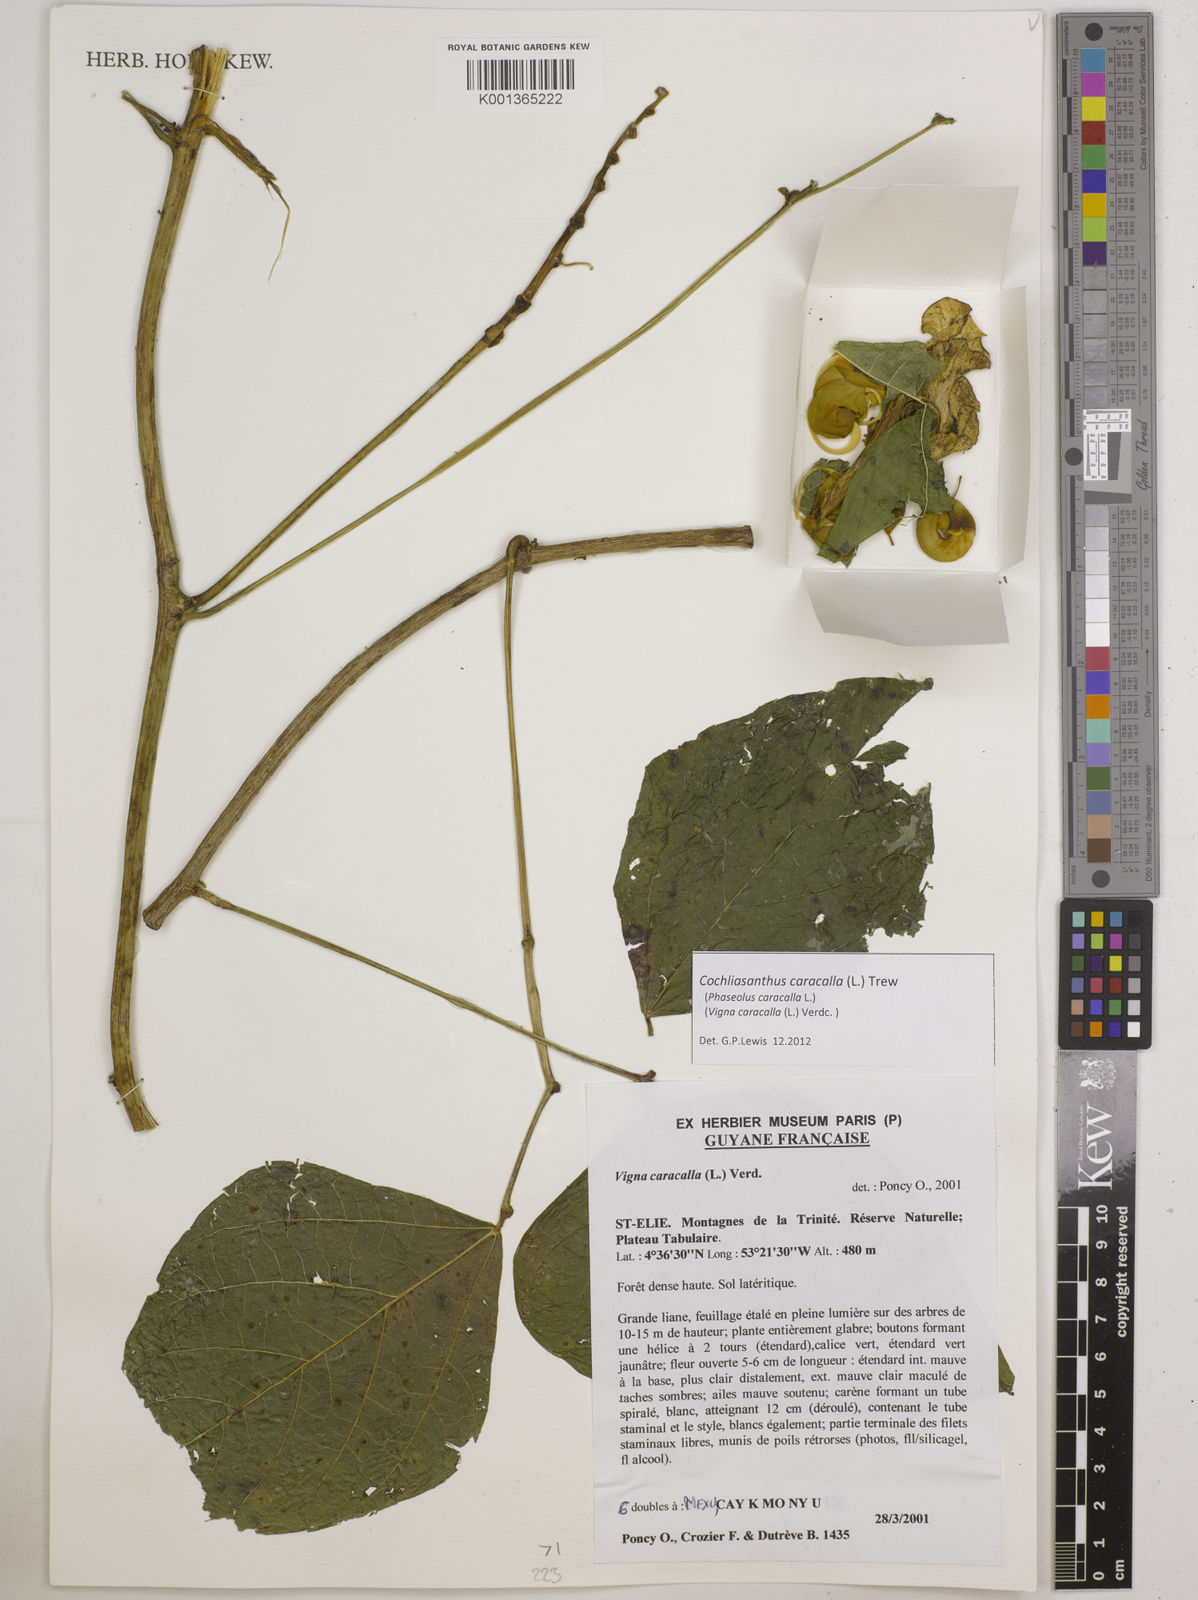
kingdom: Plantae
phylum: Tracheophyta
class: Magnoliopsida
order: Fabales
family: Fabaceae
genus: Cochliasanthus
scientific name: Cochliasanthus caracalla
